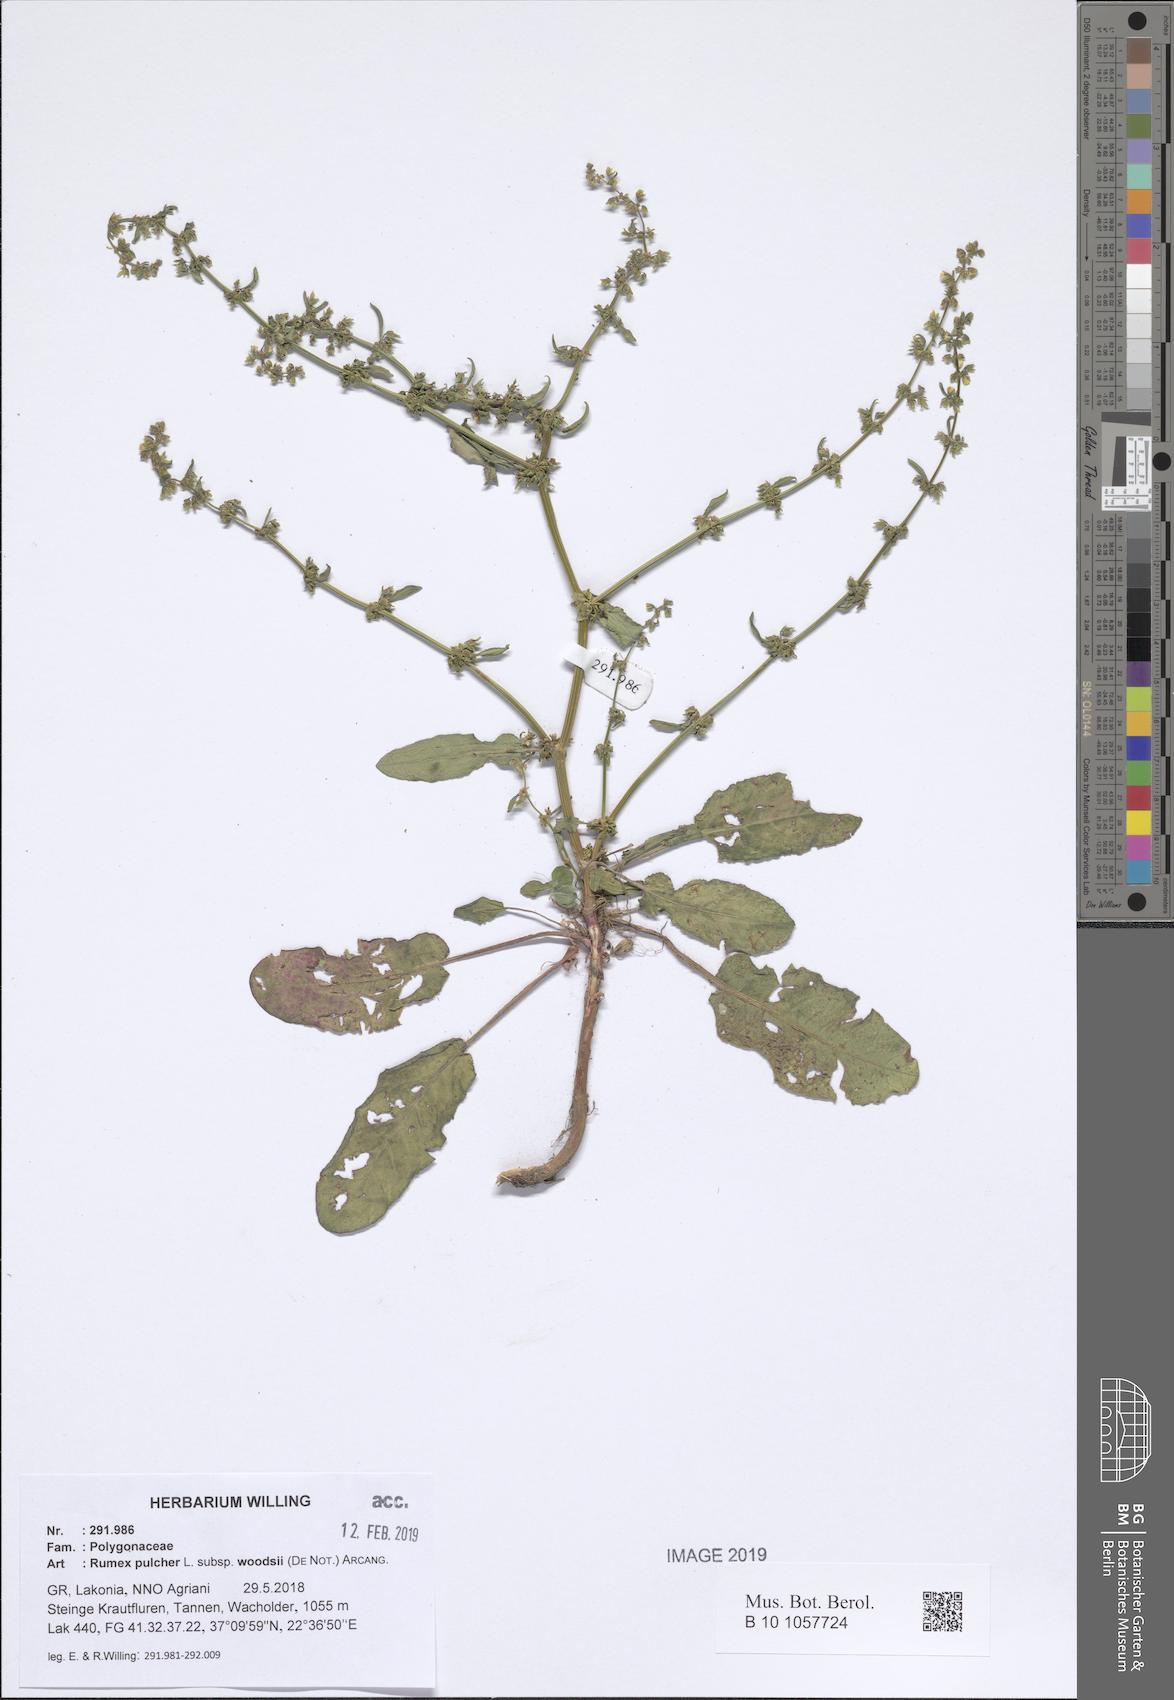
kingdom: Plantae
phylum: Tracheophyta
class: Magnoliopsida
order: Caryophyllales
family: Polygonaceae
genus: Rumex
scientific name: Rumex pulcher
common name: Fiddle dock
